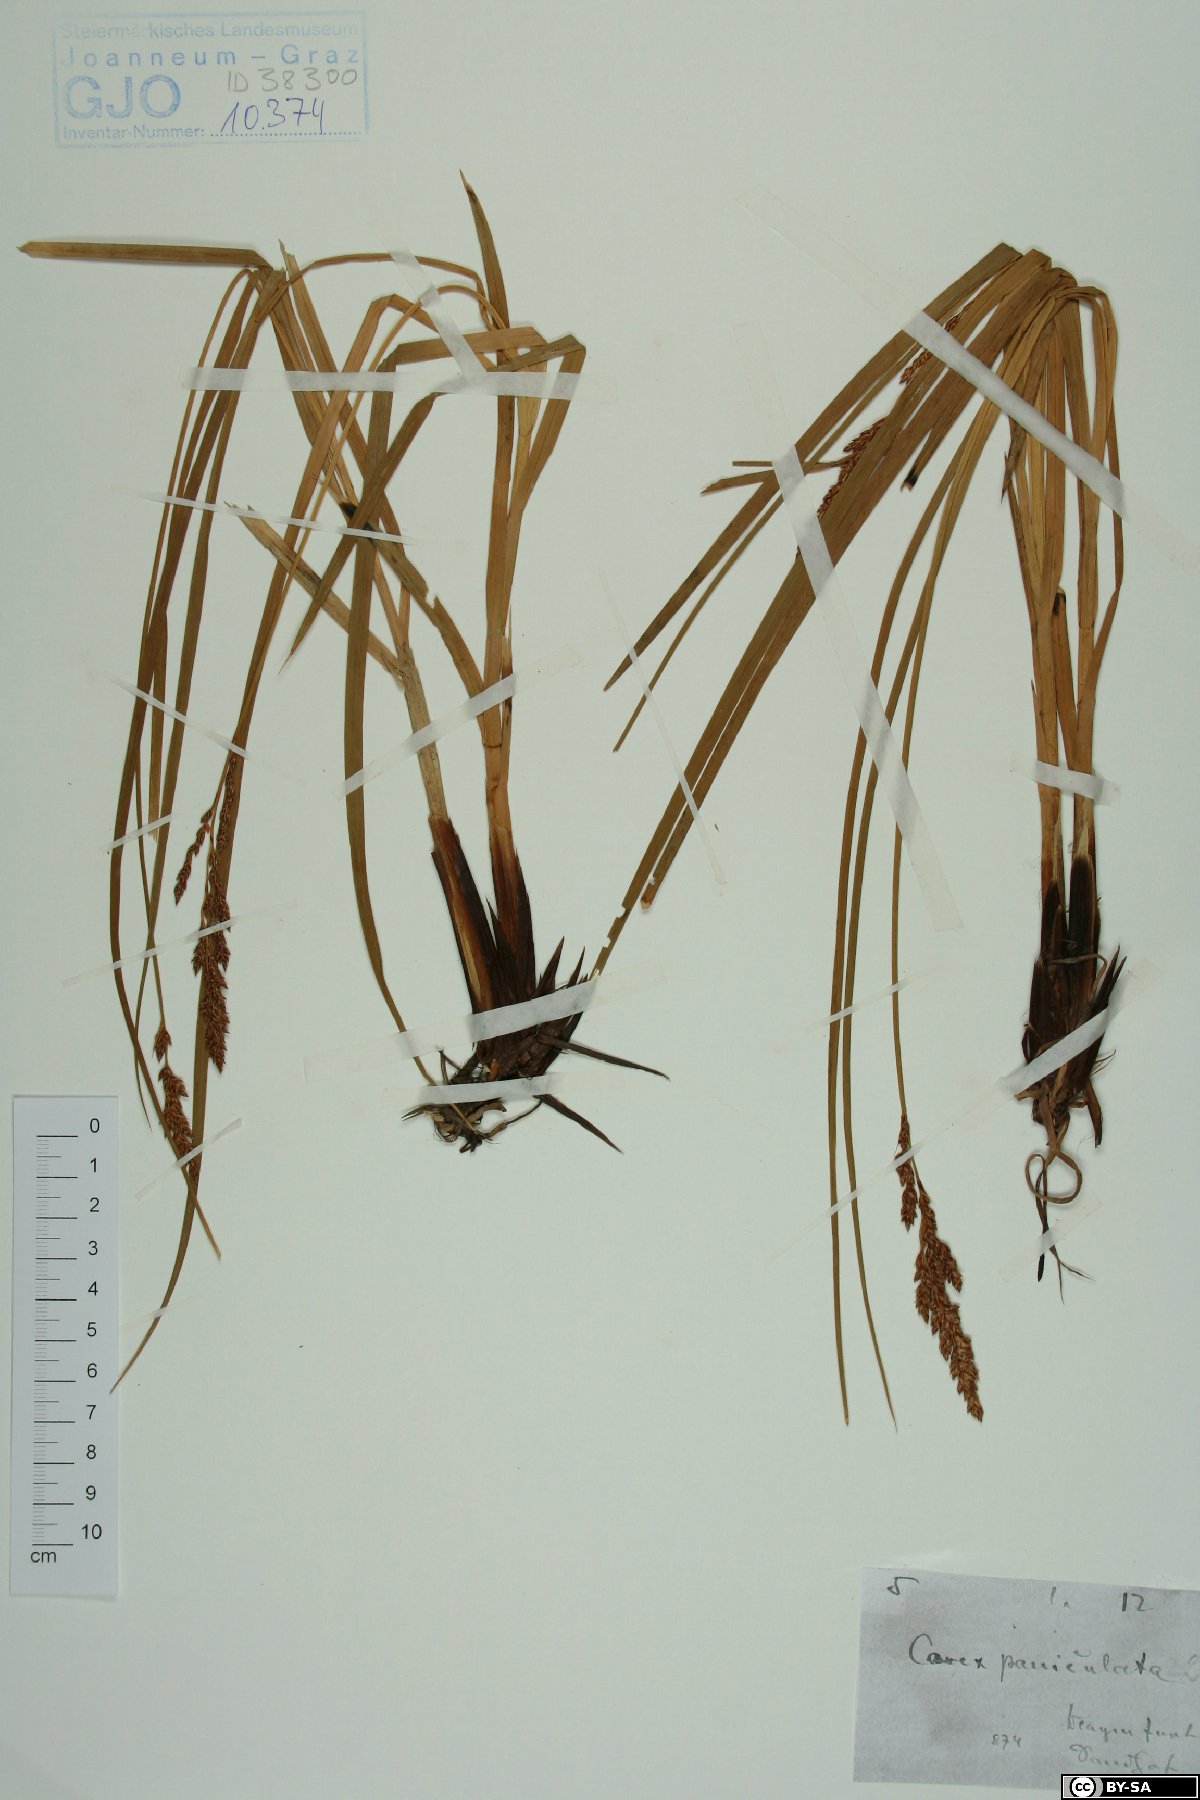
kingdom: Plantae
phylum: Tracheophyta
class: Liliopsida
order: Poales
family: Cyperaceae
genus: Carex
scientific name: Carex paniculata
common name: Greater tussock-sedge
